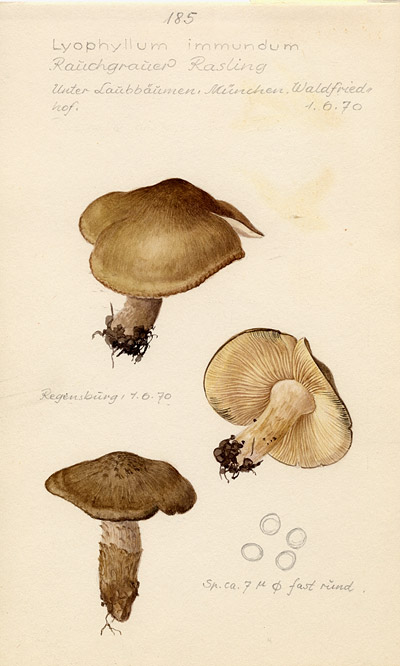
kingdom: Fungi
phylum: Basidiomycota
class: Agaricomycetes
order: Agaricales
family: Lyophyllaceae
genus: Lyophyllum
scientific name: Lyophyllum immundum
